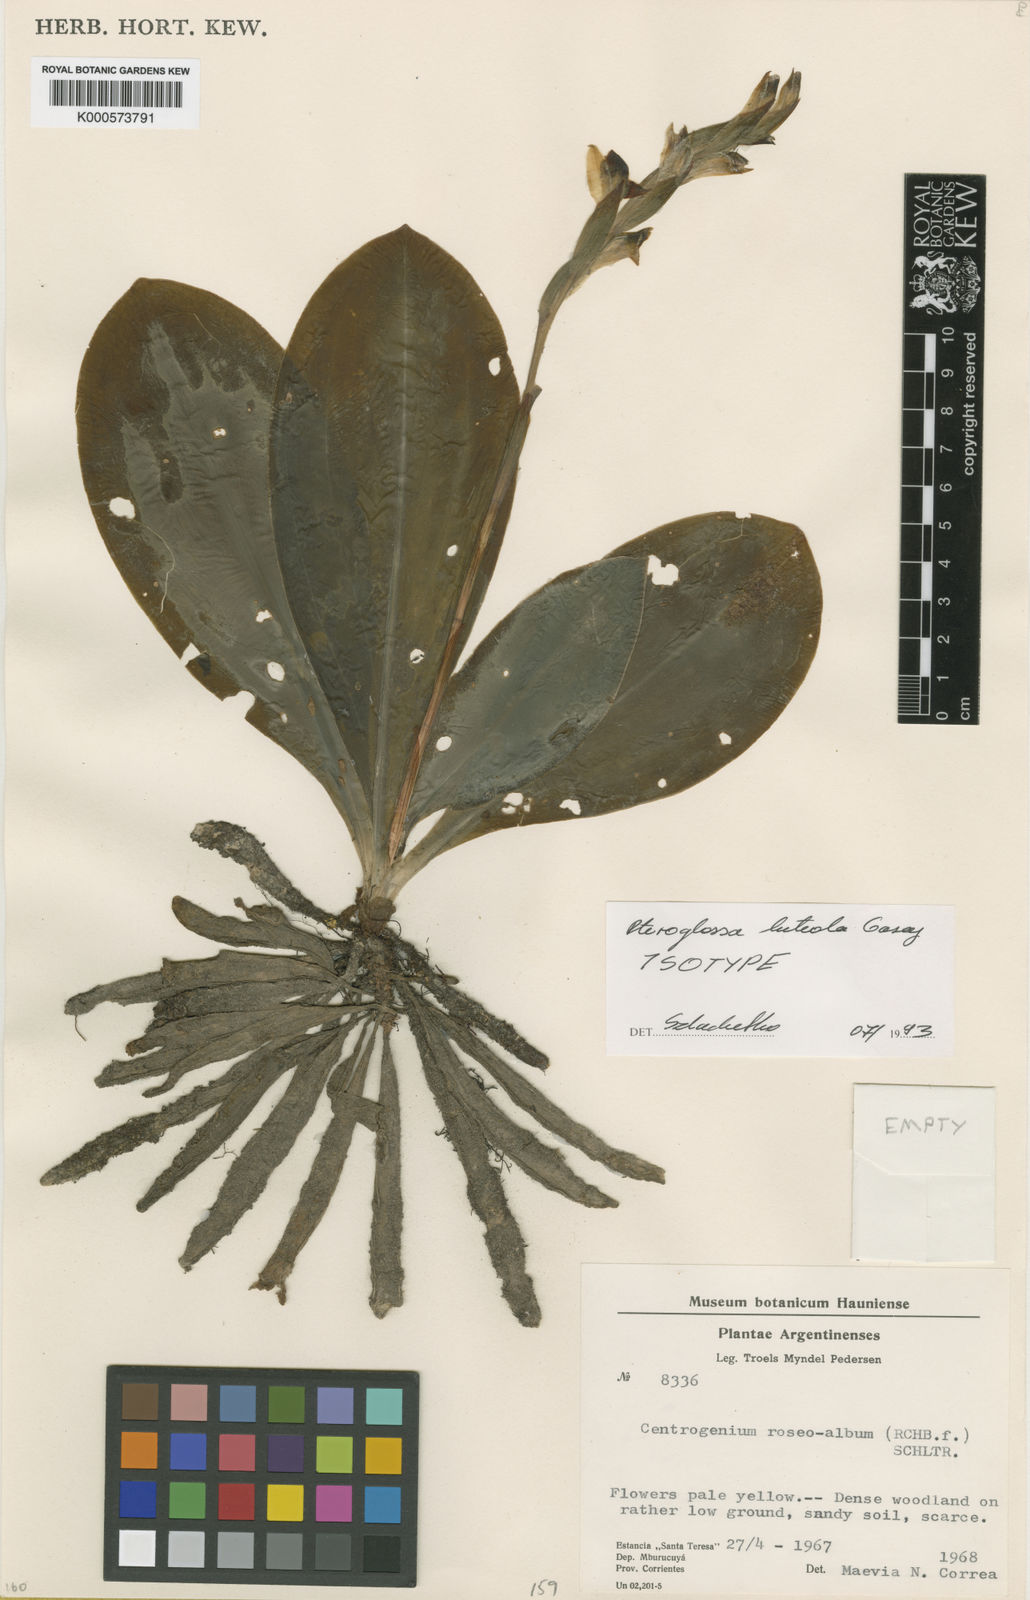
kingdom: Plantae
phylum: Tracheophyta
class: Liliopsida
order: Asparagales
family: Orchidaceae
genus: Pteroglossa
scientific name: Pteroglossa luteola
